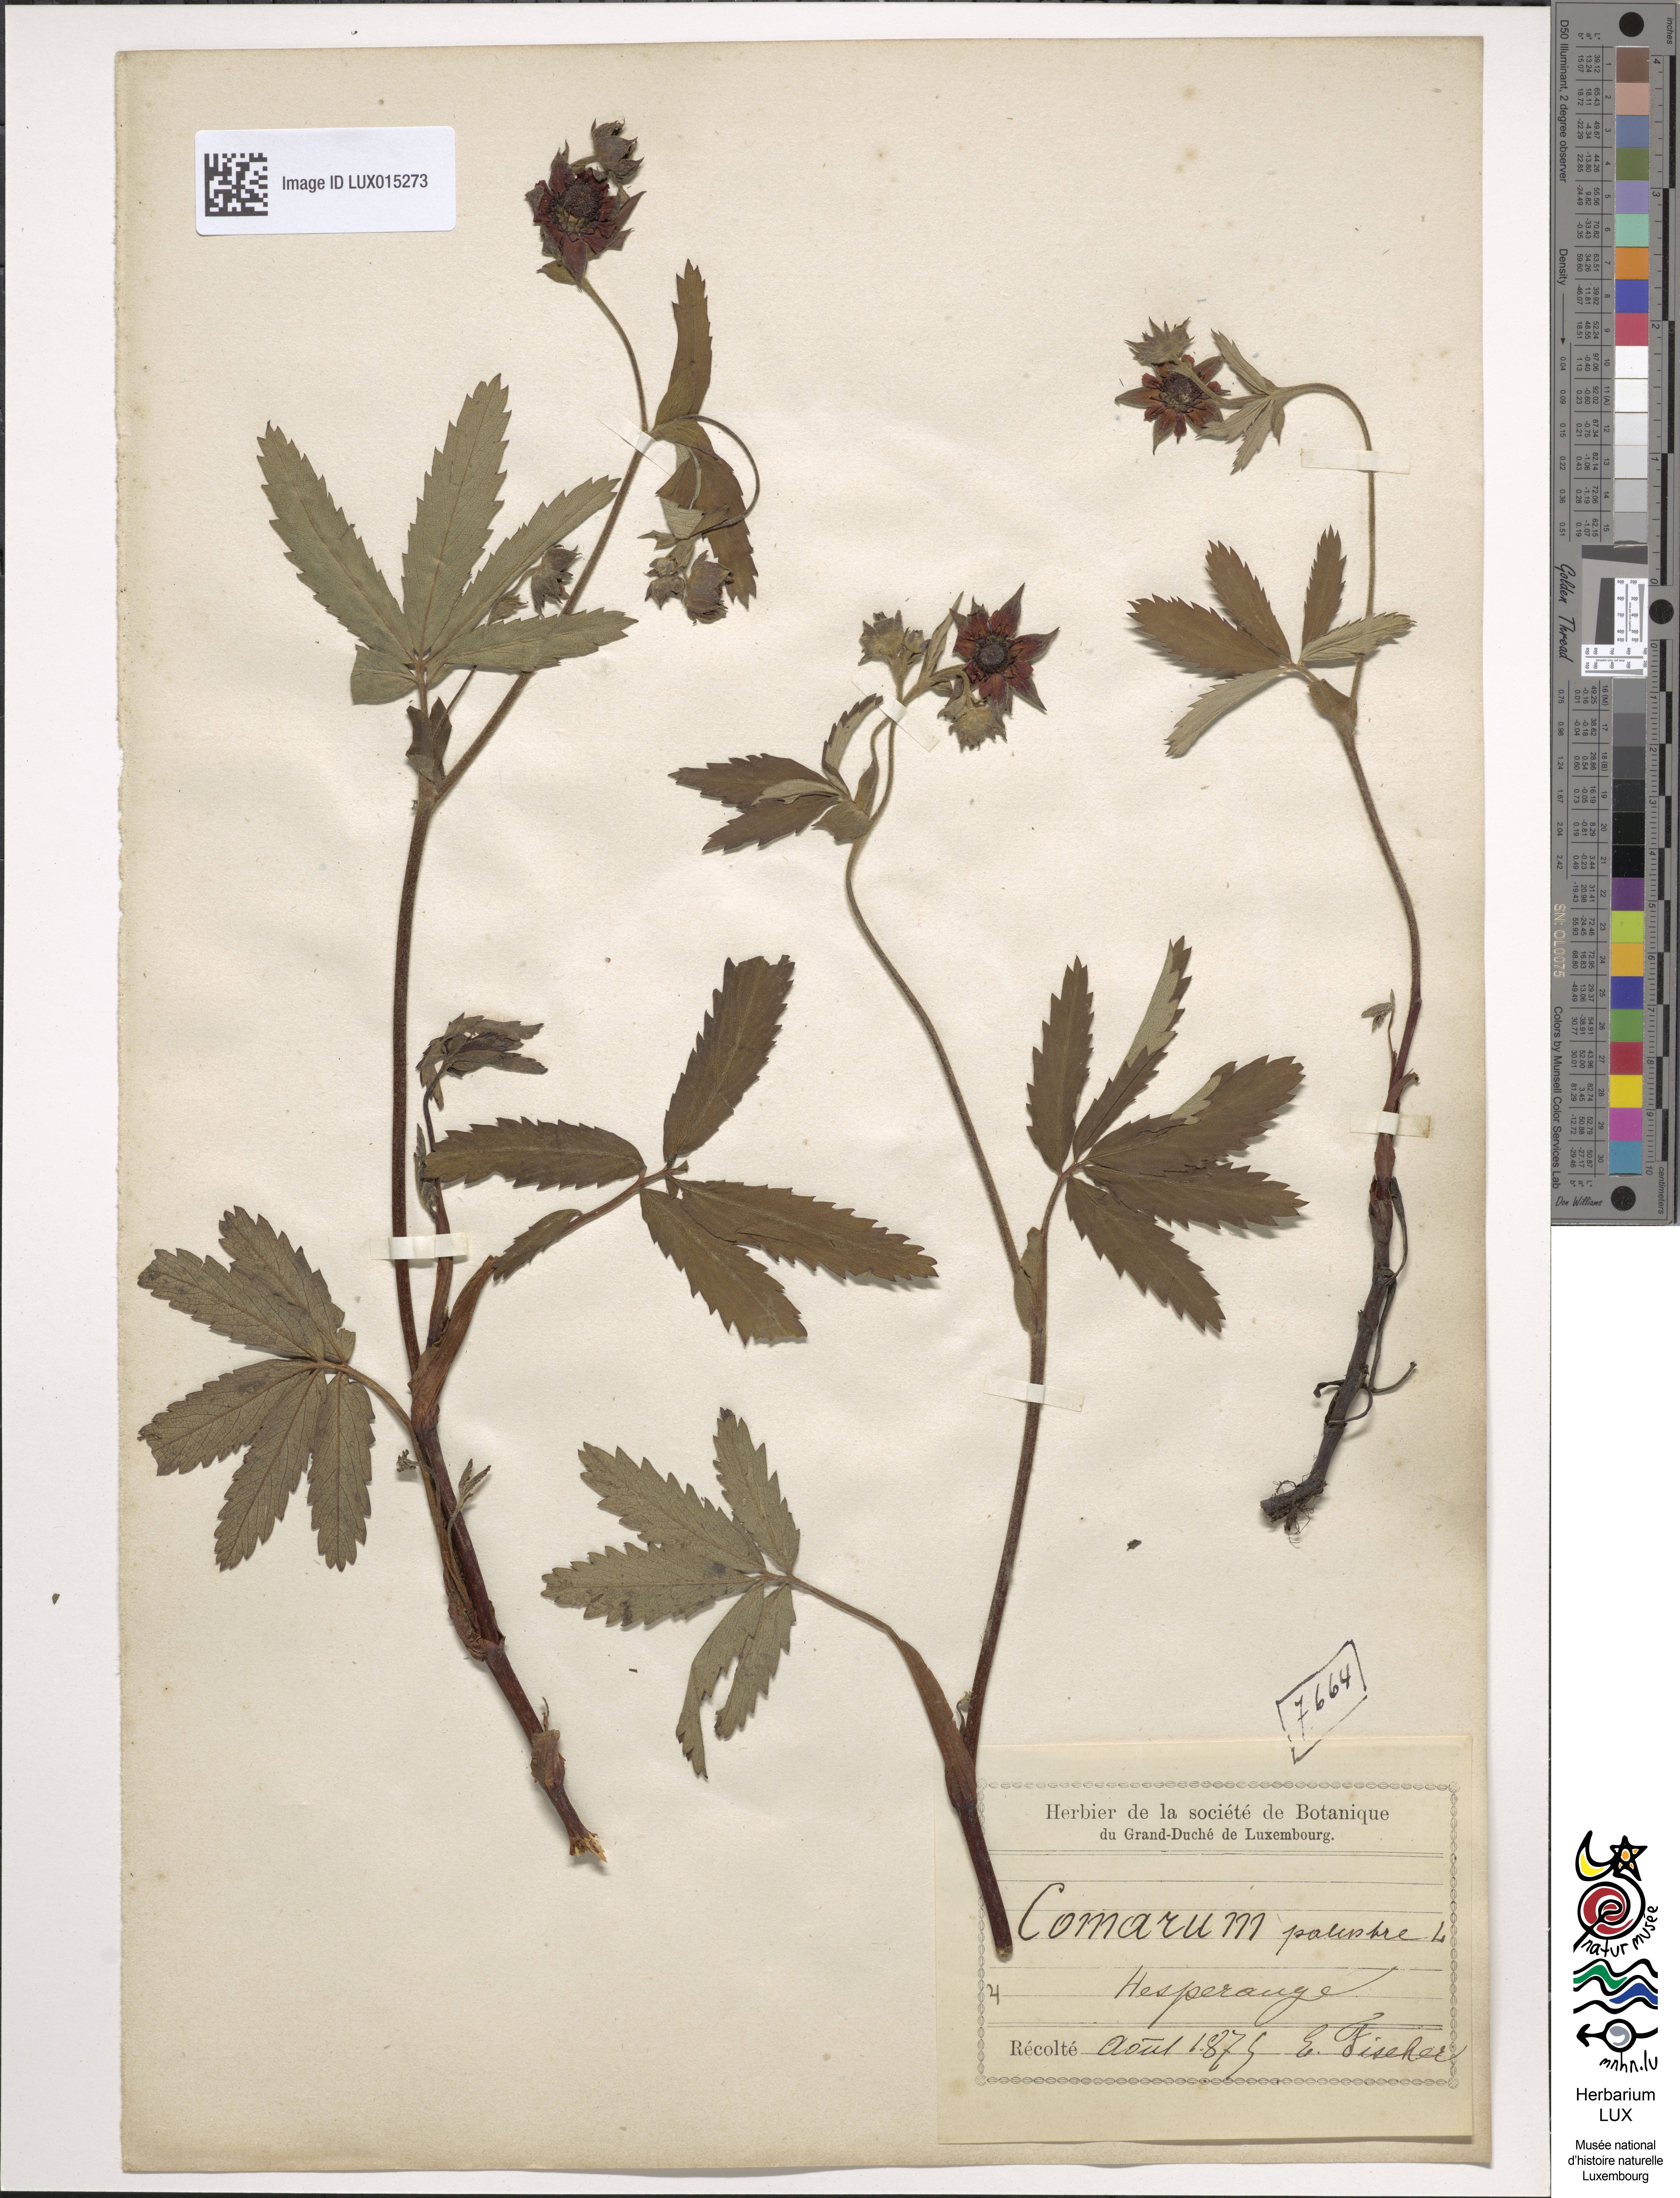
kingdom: Plantae
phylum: Tracheophyta
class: Magnoliopsida
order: Rosales
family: Rosaceae
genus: Comarum
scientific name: Comarum palustre
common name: Marsh cinquefoil
